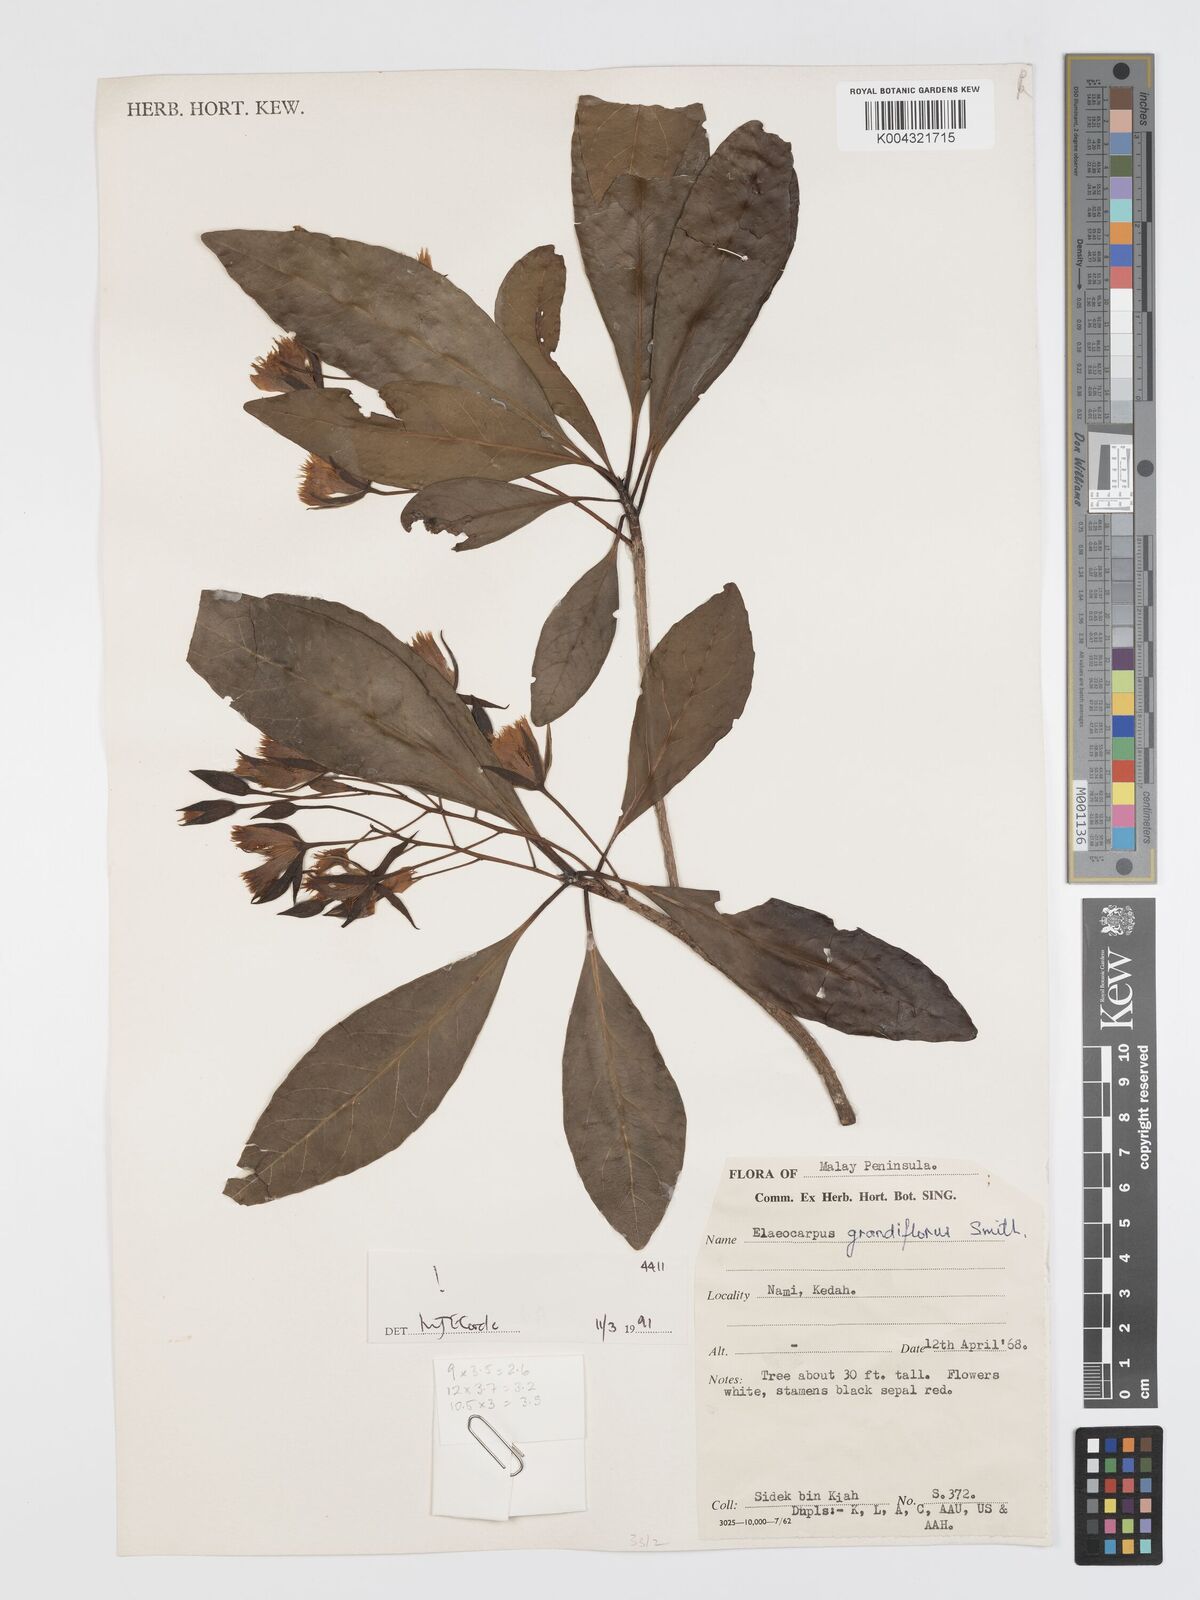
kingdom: Plantae
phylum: Tracheophyta
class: Magnoliopsida
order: Oxalidales
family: Elaeocarpaceae
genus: Elaeocarpus
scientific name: Elaeocarpus grandiflorus
